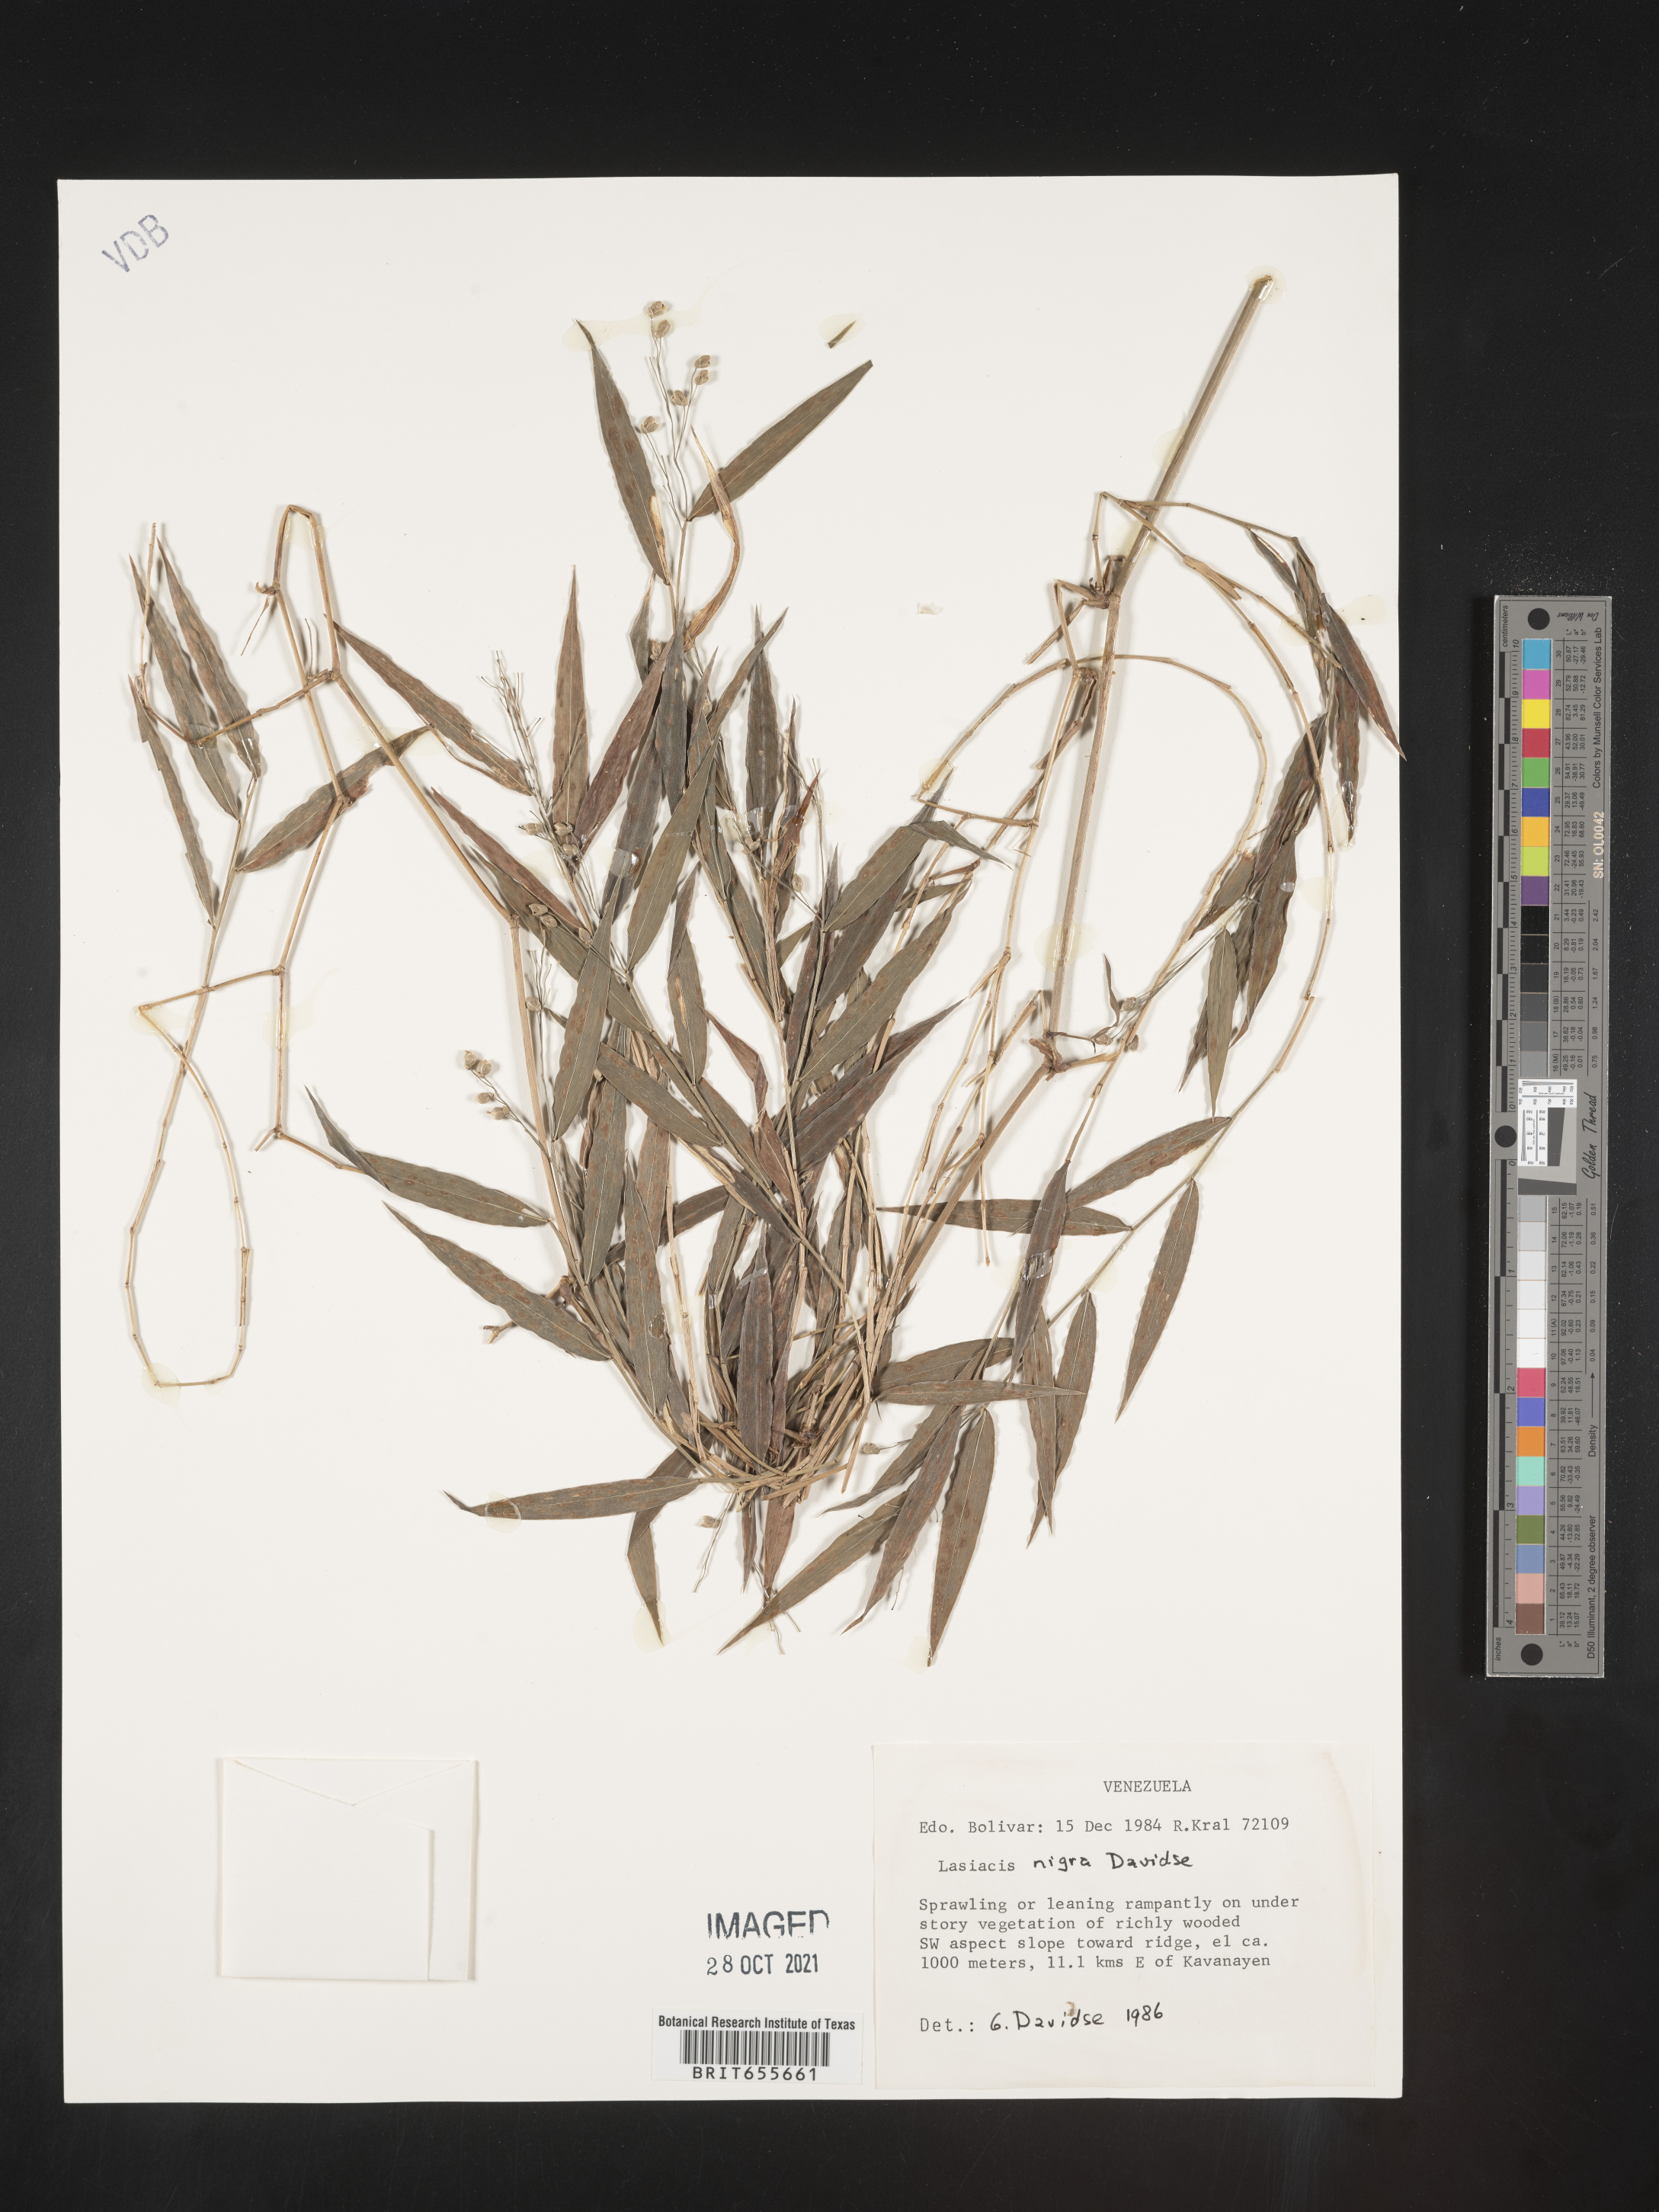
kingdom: Plantae
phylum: Tracheophyta
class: Liliopsida
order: Poales
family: Poaceae
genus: Lasiacis
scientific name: Lasiacis
